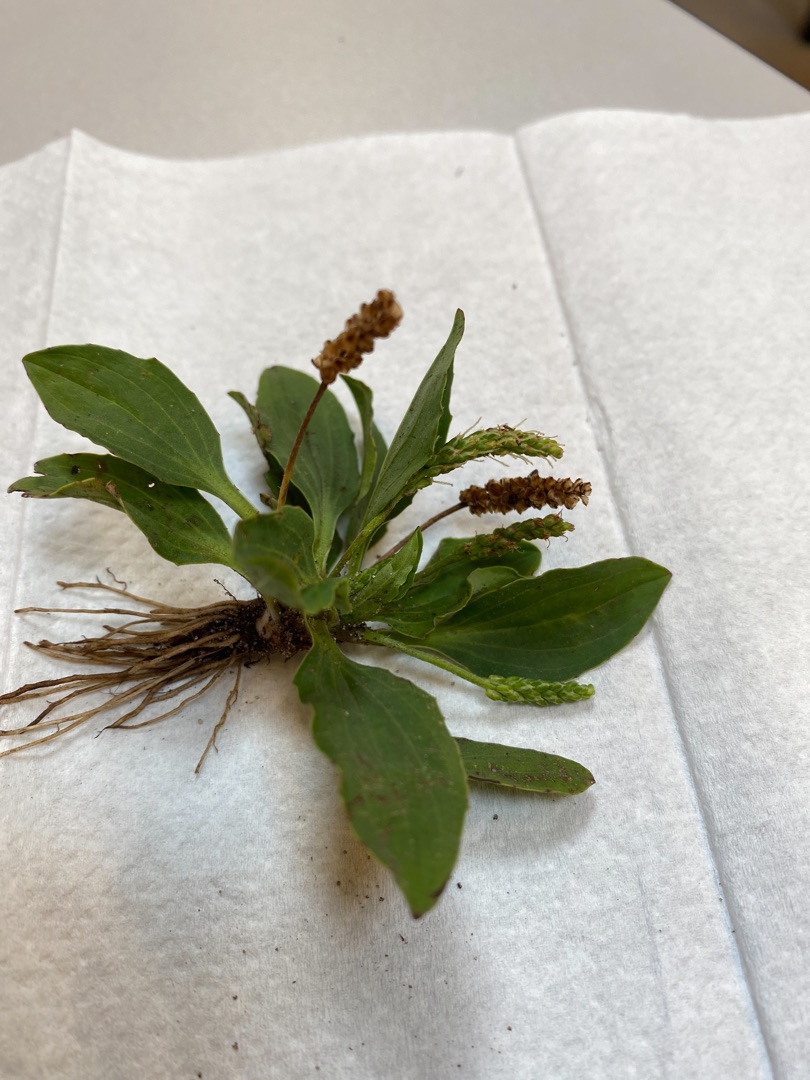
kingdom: Plantae
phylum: Tracheophyta
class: Magnoliopsida
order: Lamiales
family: Plantaginaceae
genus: Plantago
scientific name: Plantago major
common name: Glat vejbred
